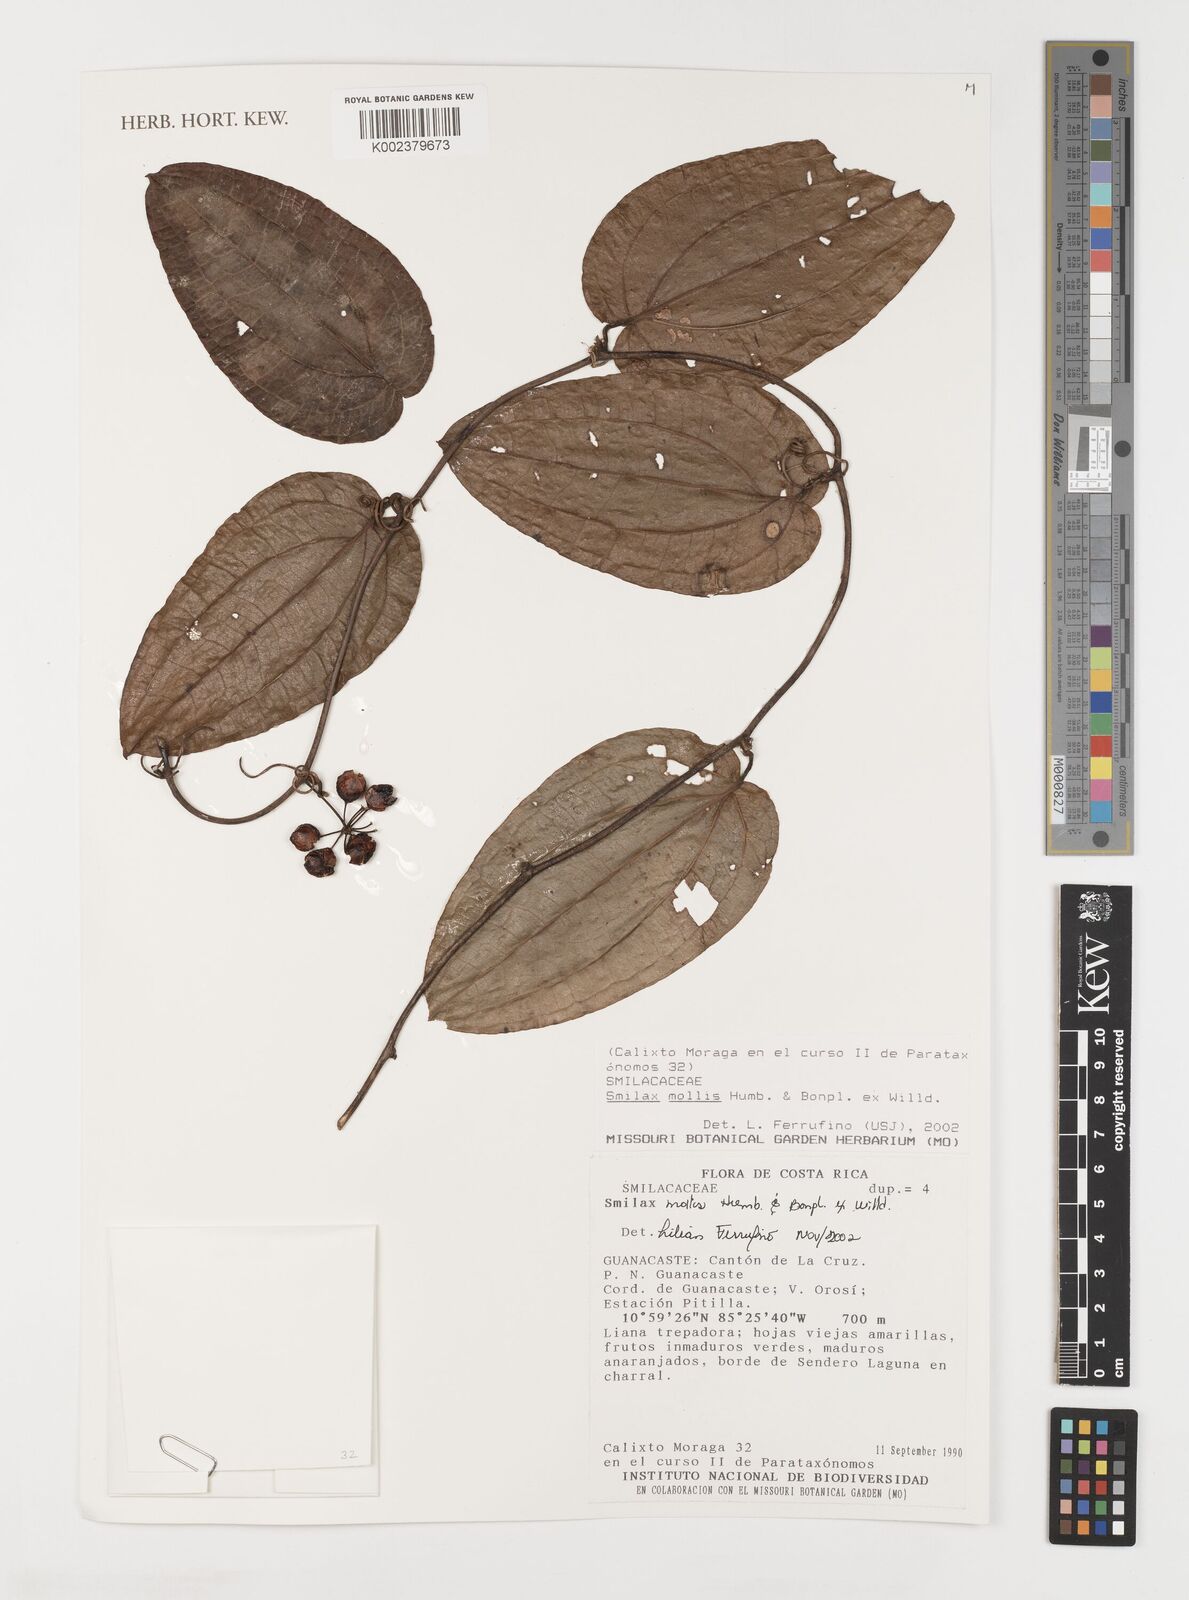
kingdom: Plantae
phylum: Tracheophyta
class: Liliopsida
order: Liliales
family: Smilacaceae
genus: Smilax
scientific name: Smilax mollis
